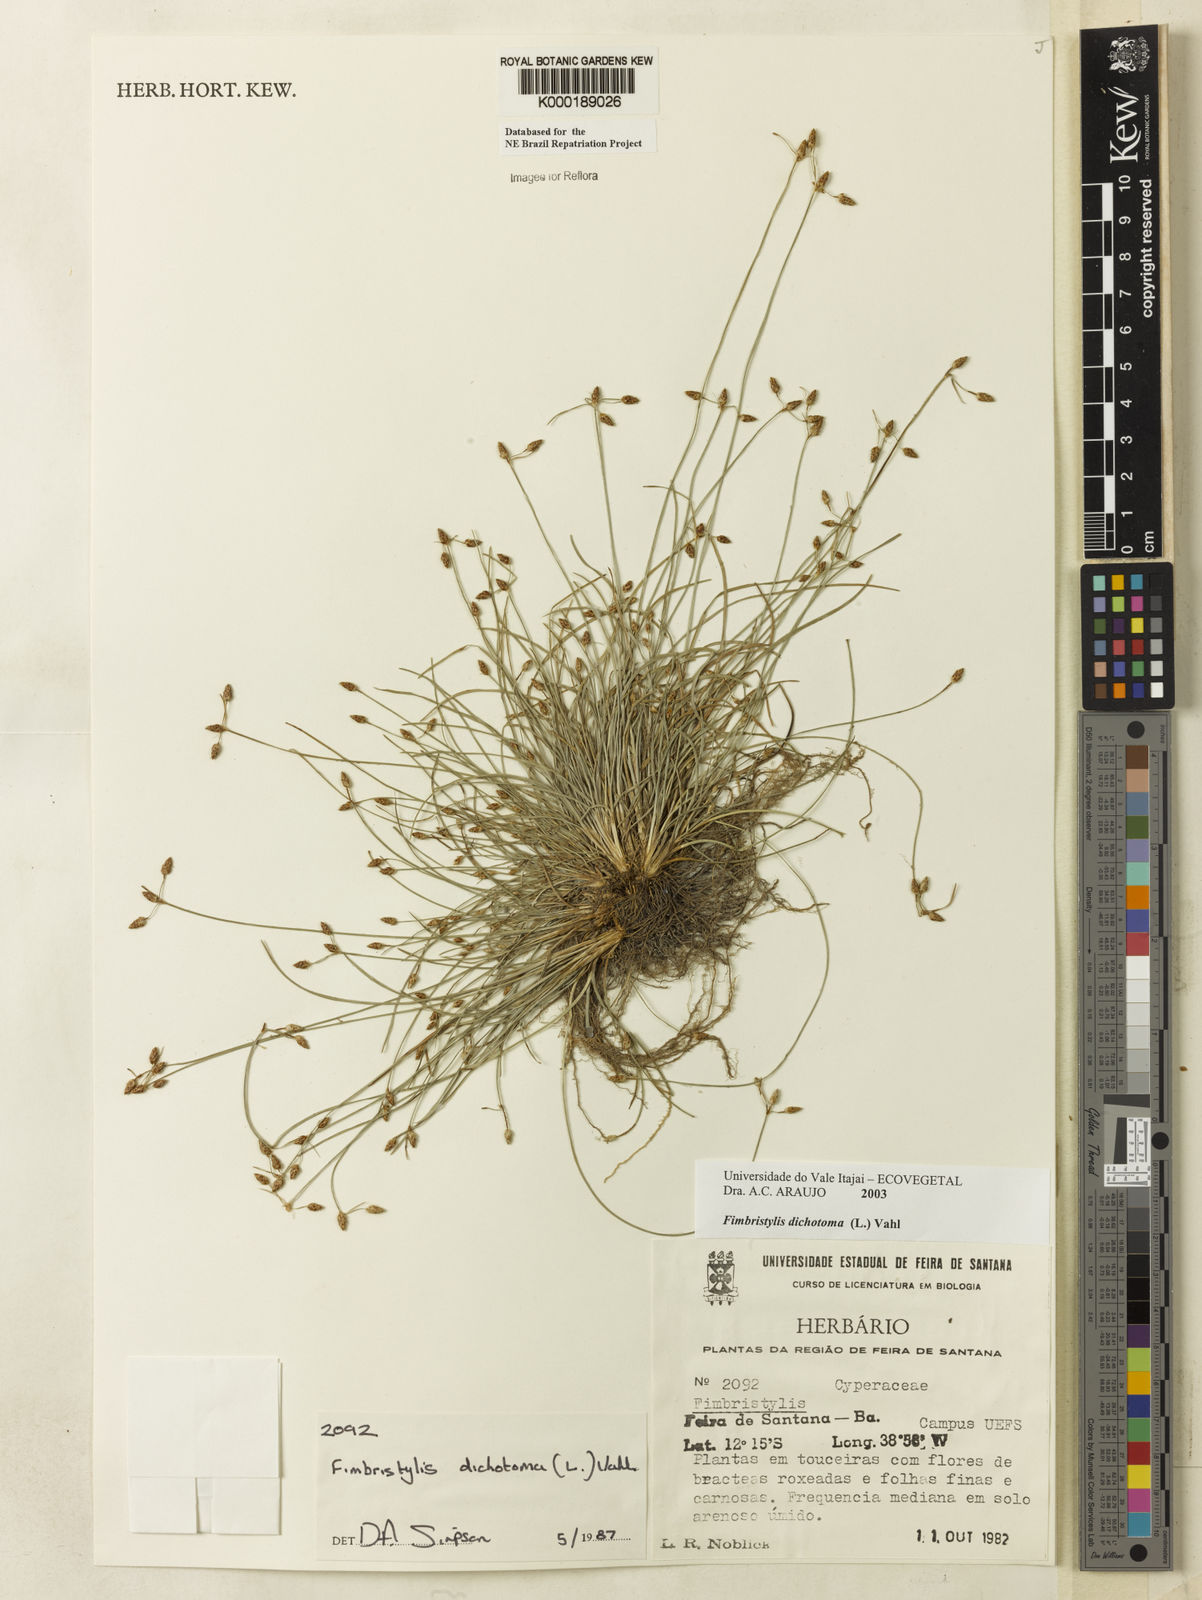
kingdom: Plantae
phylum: Tracheophyta
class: Liliopsida
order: Poales
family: Cyperaceae
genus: Fimbristylis
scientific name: Fimbristylis dichotoma
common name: Forked fimbry
